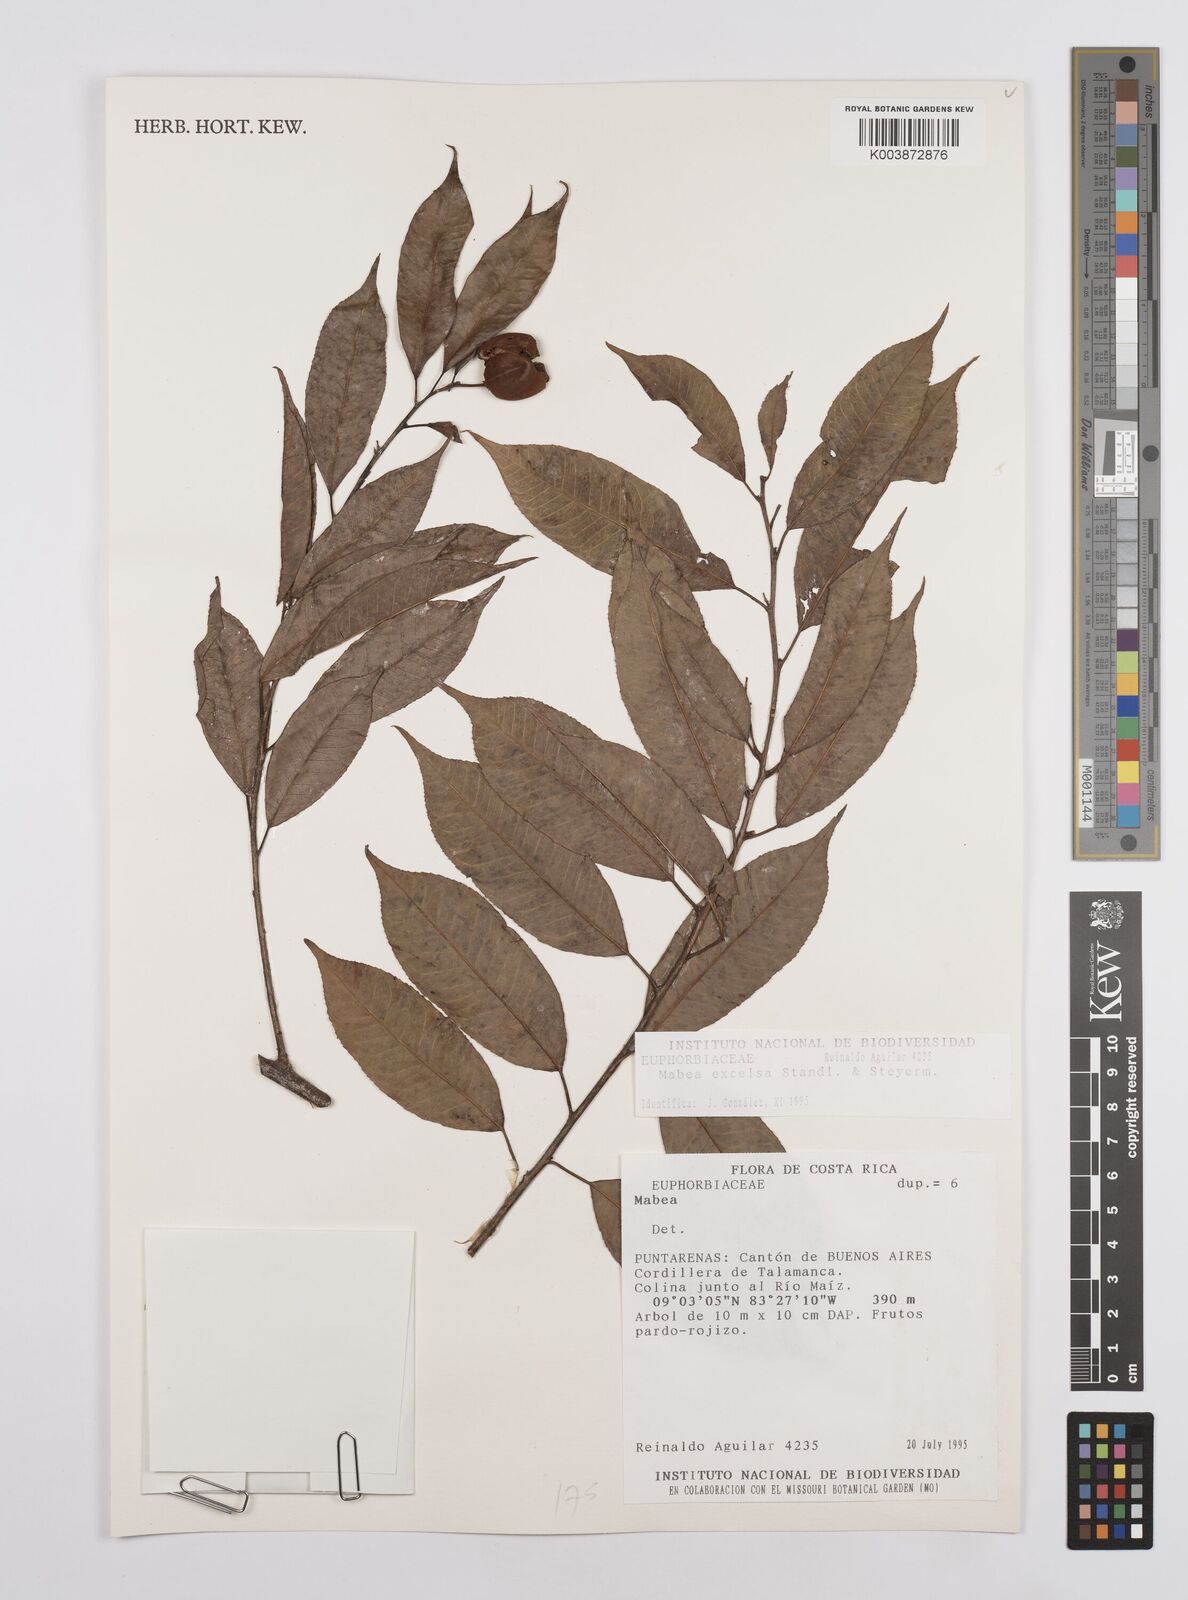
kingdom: Plantae
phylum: Tracheophyta
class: Magnoliopsida
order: Malpighiales
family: Euphorbiaceae
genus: Mabea
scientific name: Mabea excelsa
